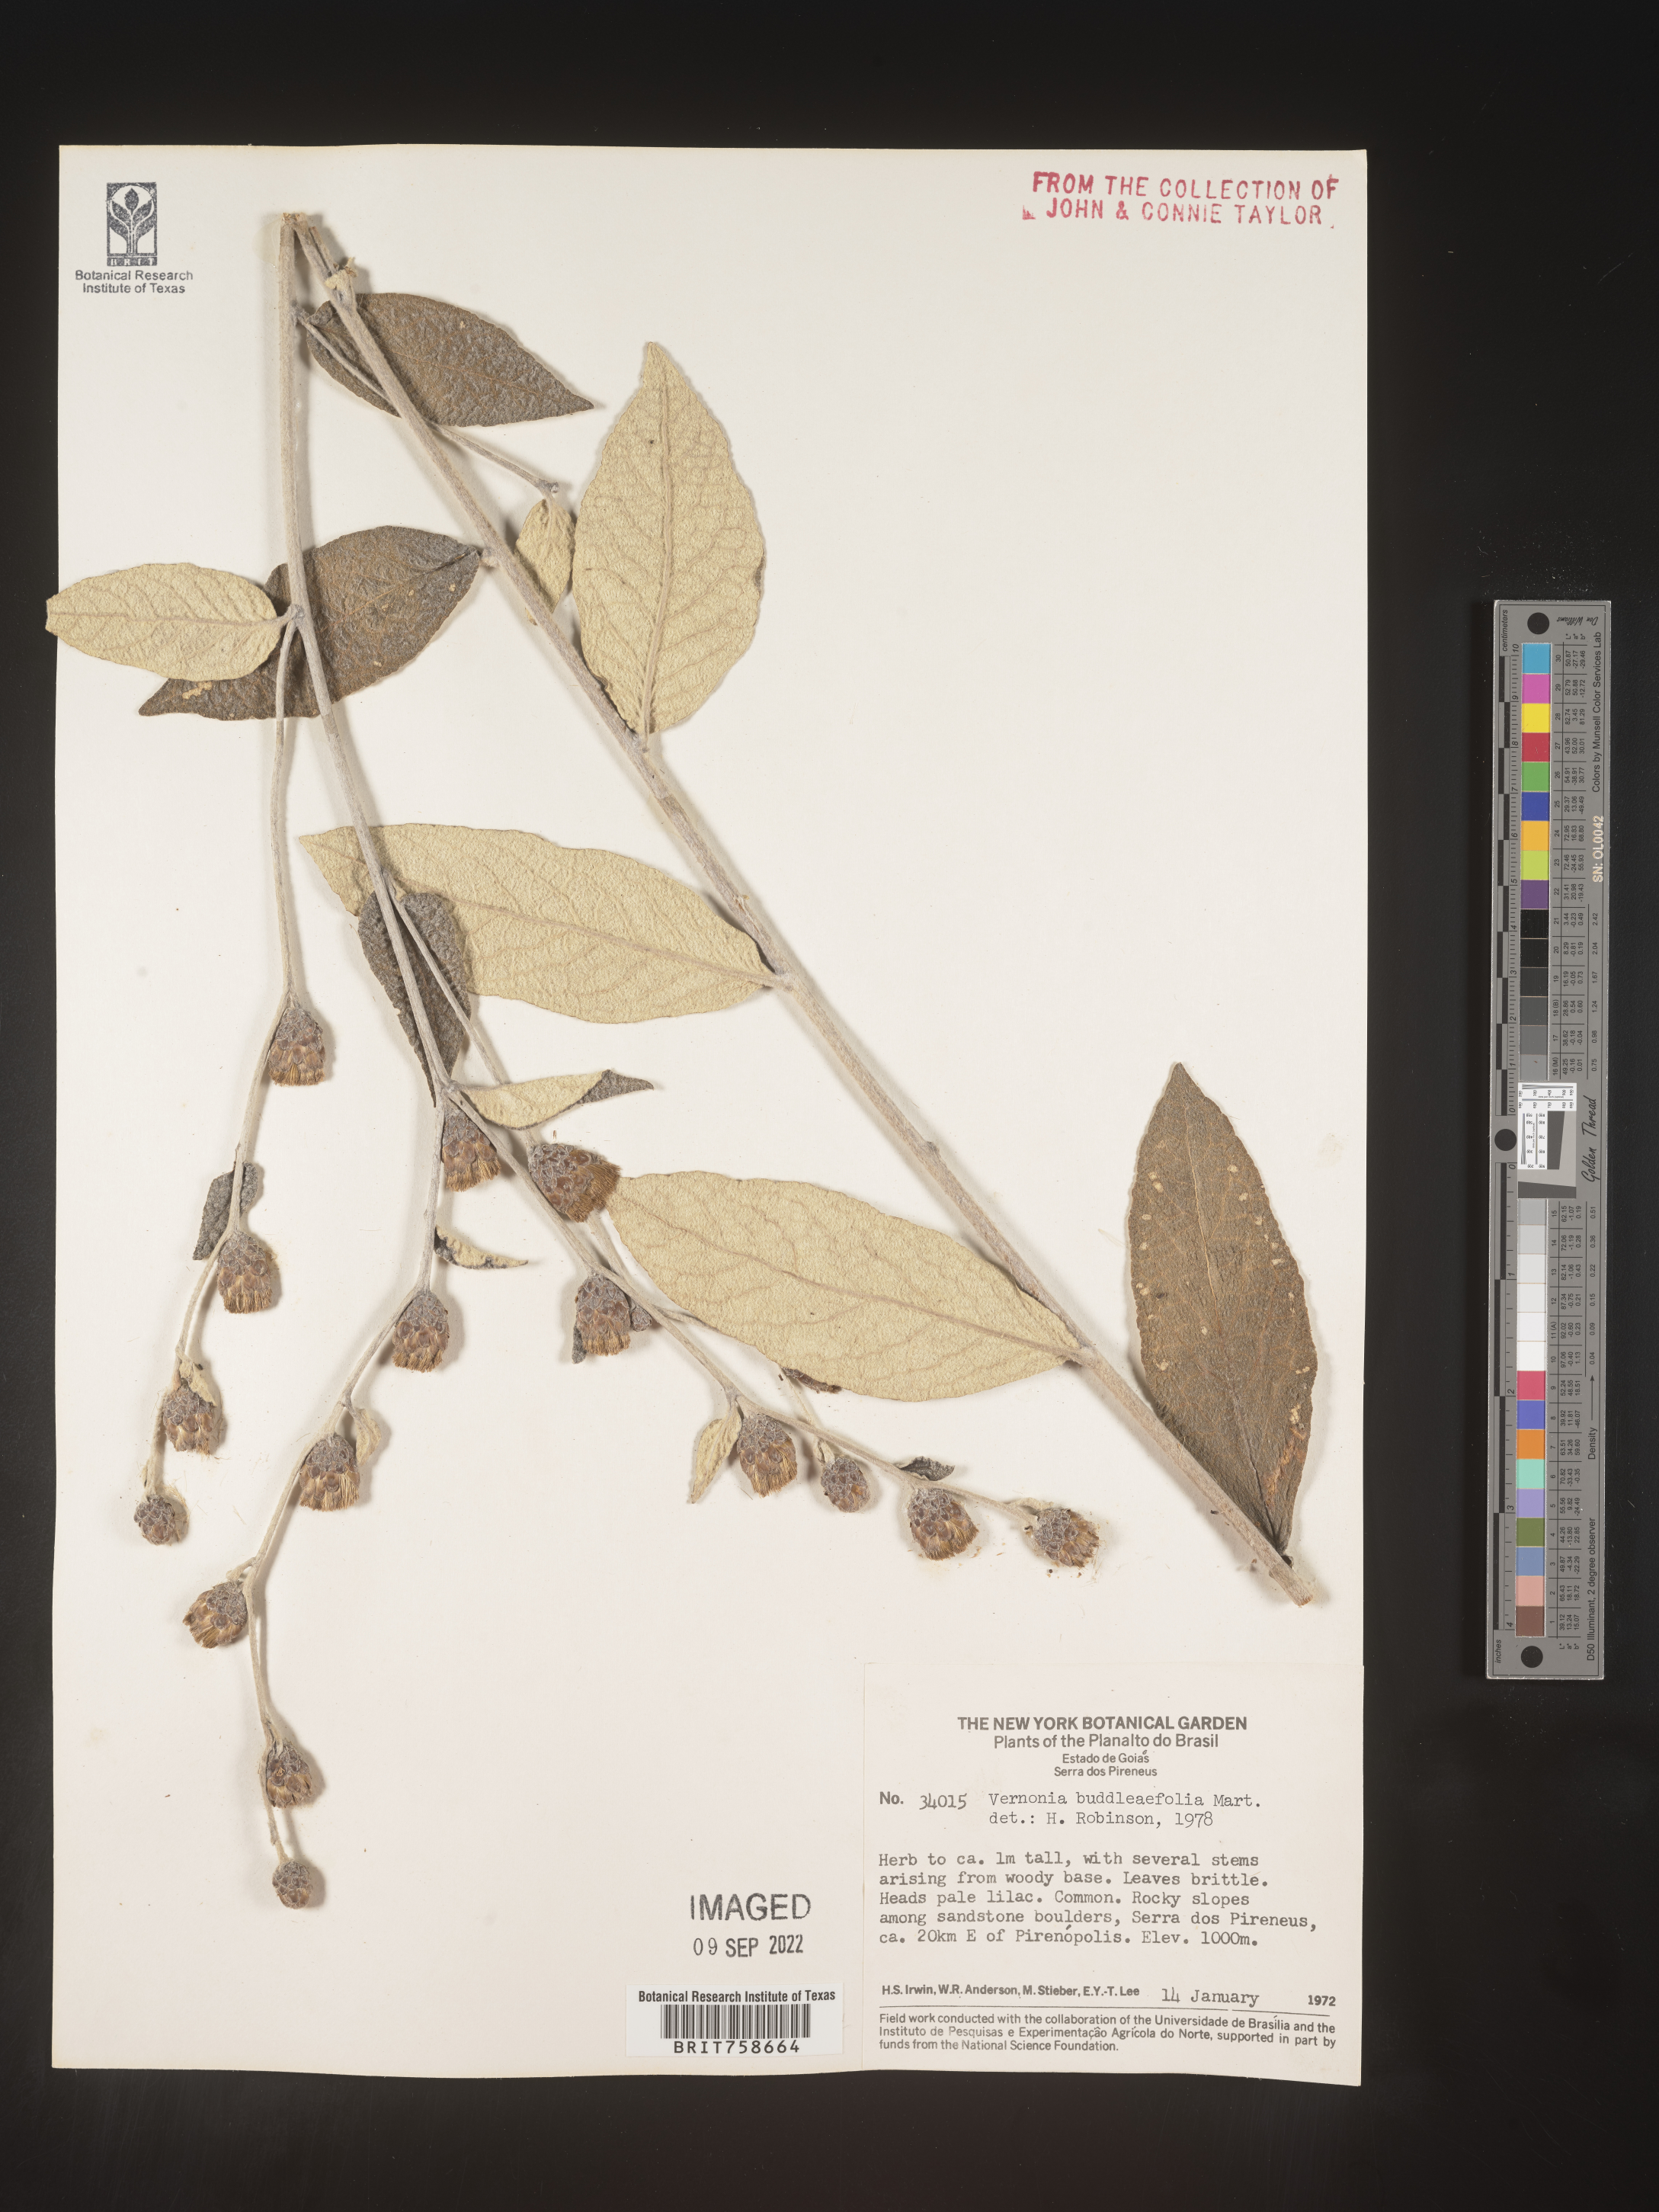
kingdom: Plantae
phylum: Tracheophyta
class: Magnoliopsida
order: Asterales
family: Asteraceae
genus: Vernonia
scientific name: Vernonia
